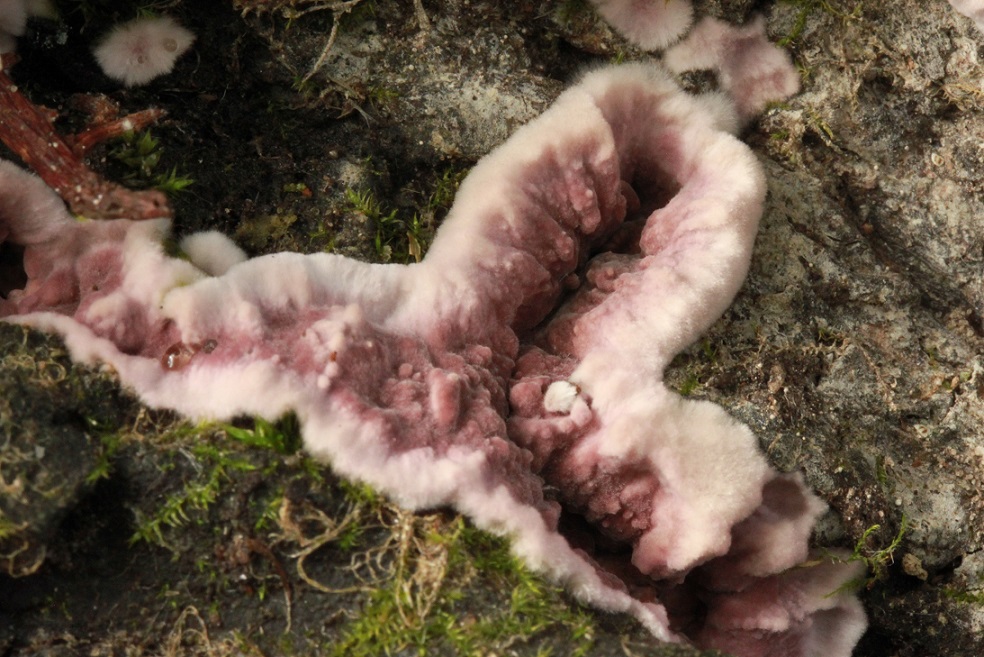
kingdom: Fungi
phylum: Basidiomycota
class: Agaricomycetes
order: Agaricales
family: Cyphellaceae
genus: Chondrostereum
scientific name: Chondrostereum purpureum
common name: purpurlædersvamp
